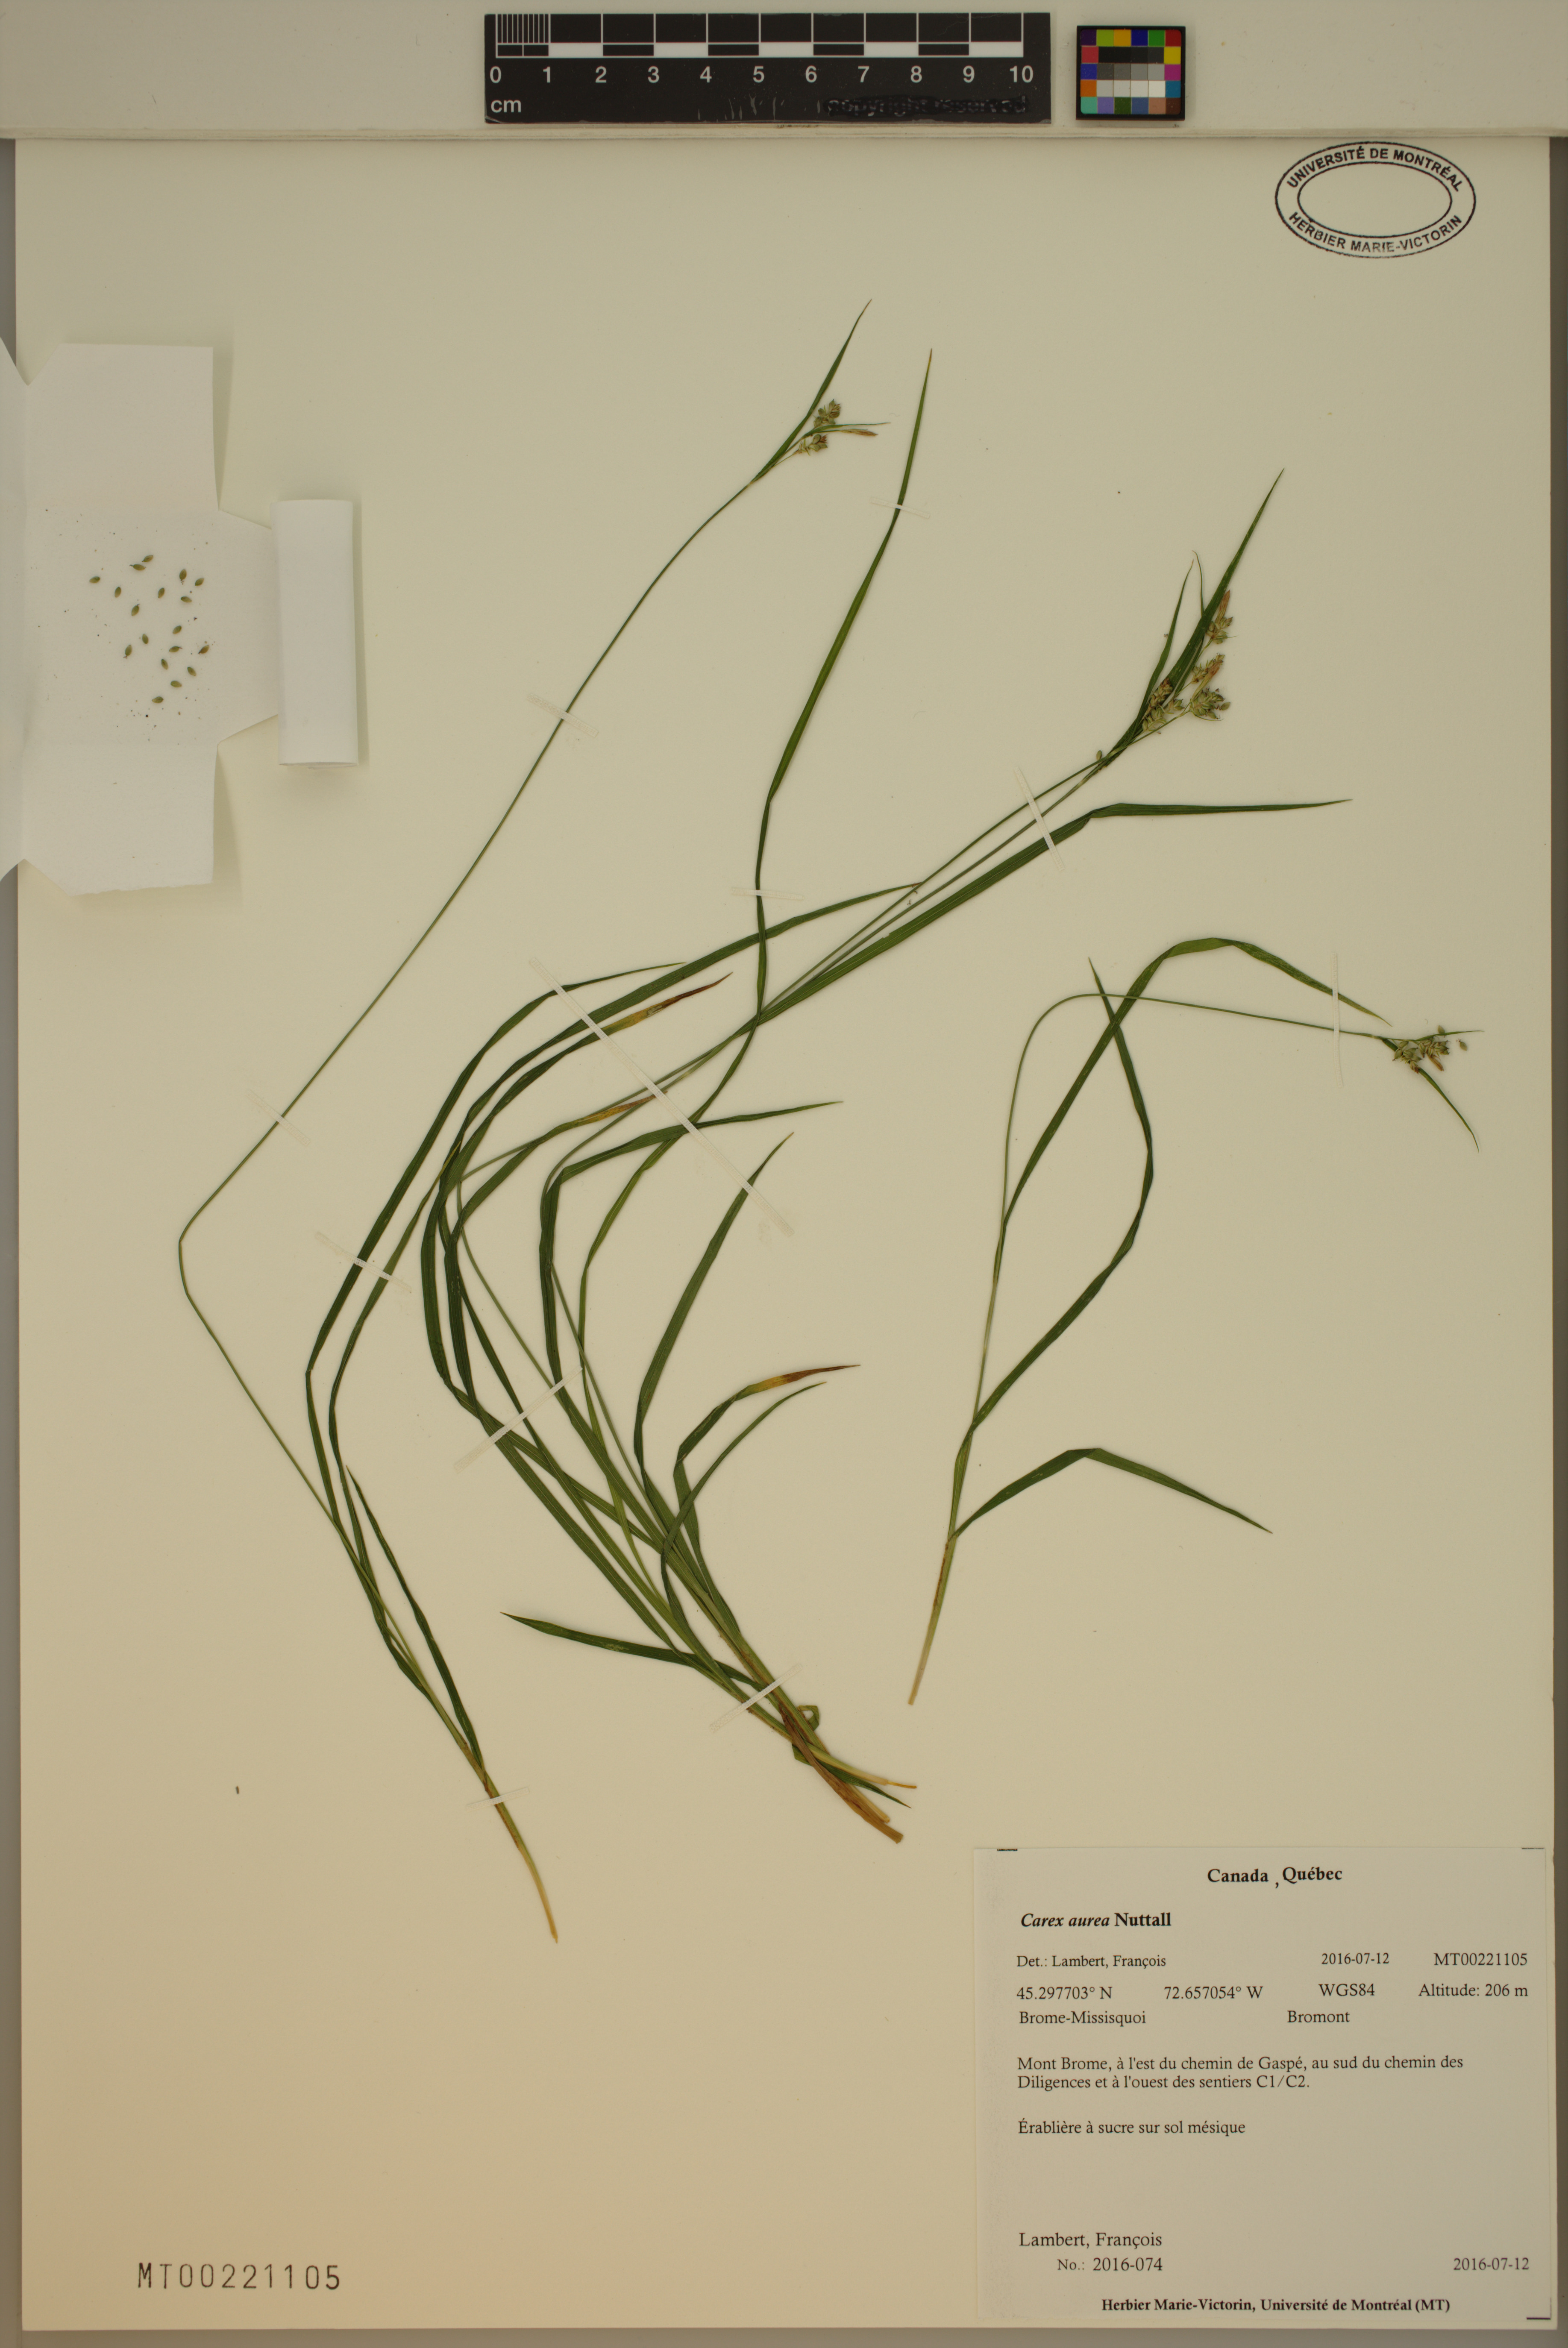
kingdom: Plantae
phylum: Tracheophyta
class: Liliopsida
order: Poales
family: Cyperaceae
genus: Carex
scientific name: Carex aurea
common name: Golden sedge
